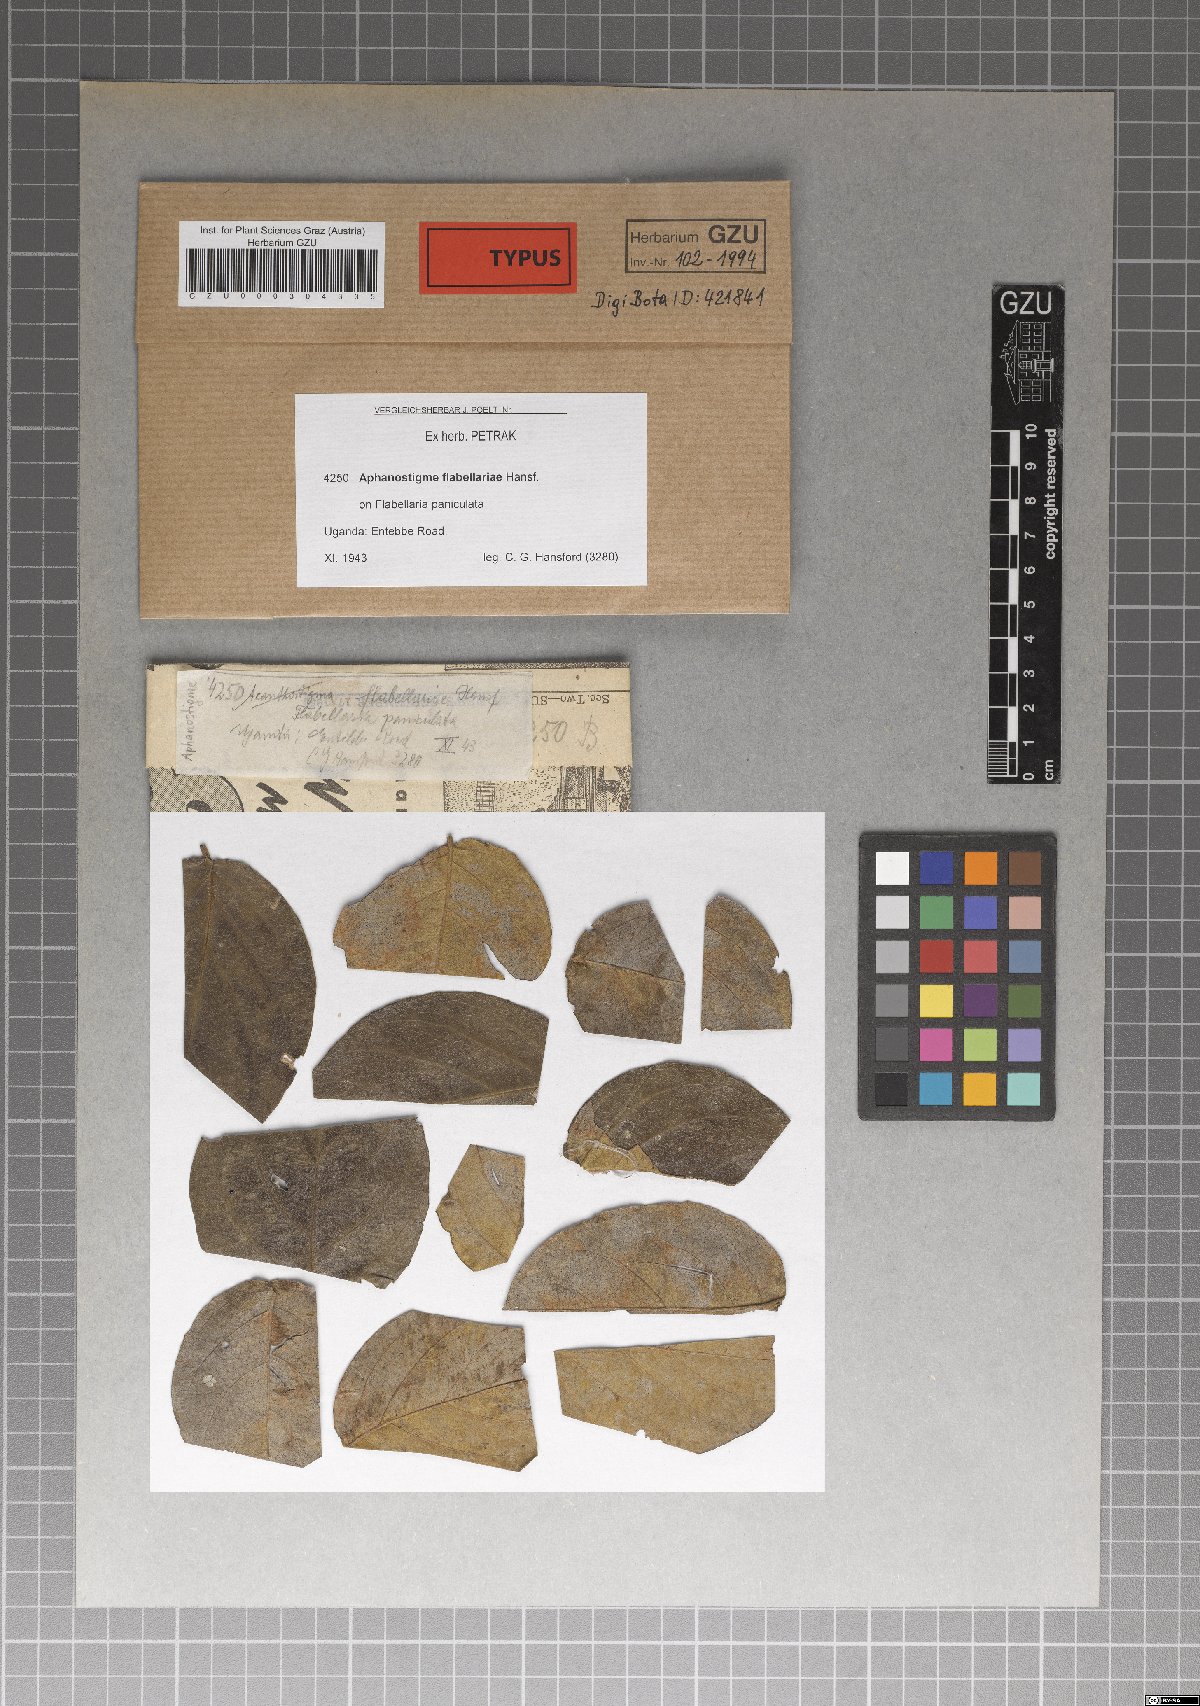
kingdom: Fungi
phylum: Ascomycota
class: Dothideomycetes
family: Pseudoperisporiaceae
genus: Aphanostigme
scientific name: Aphanostigme flabellariae
